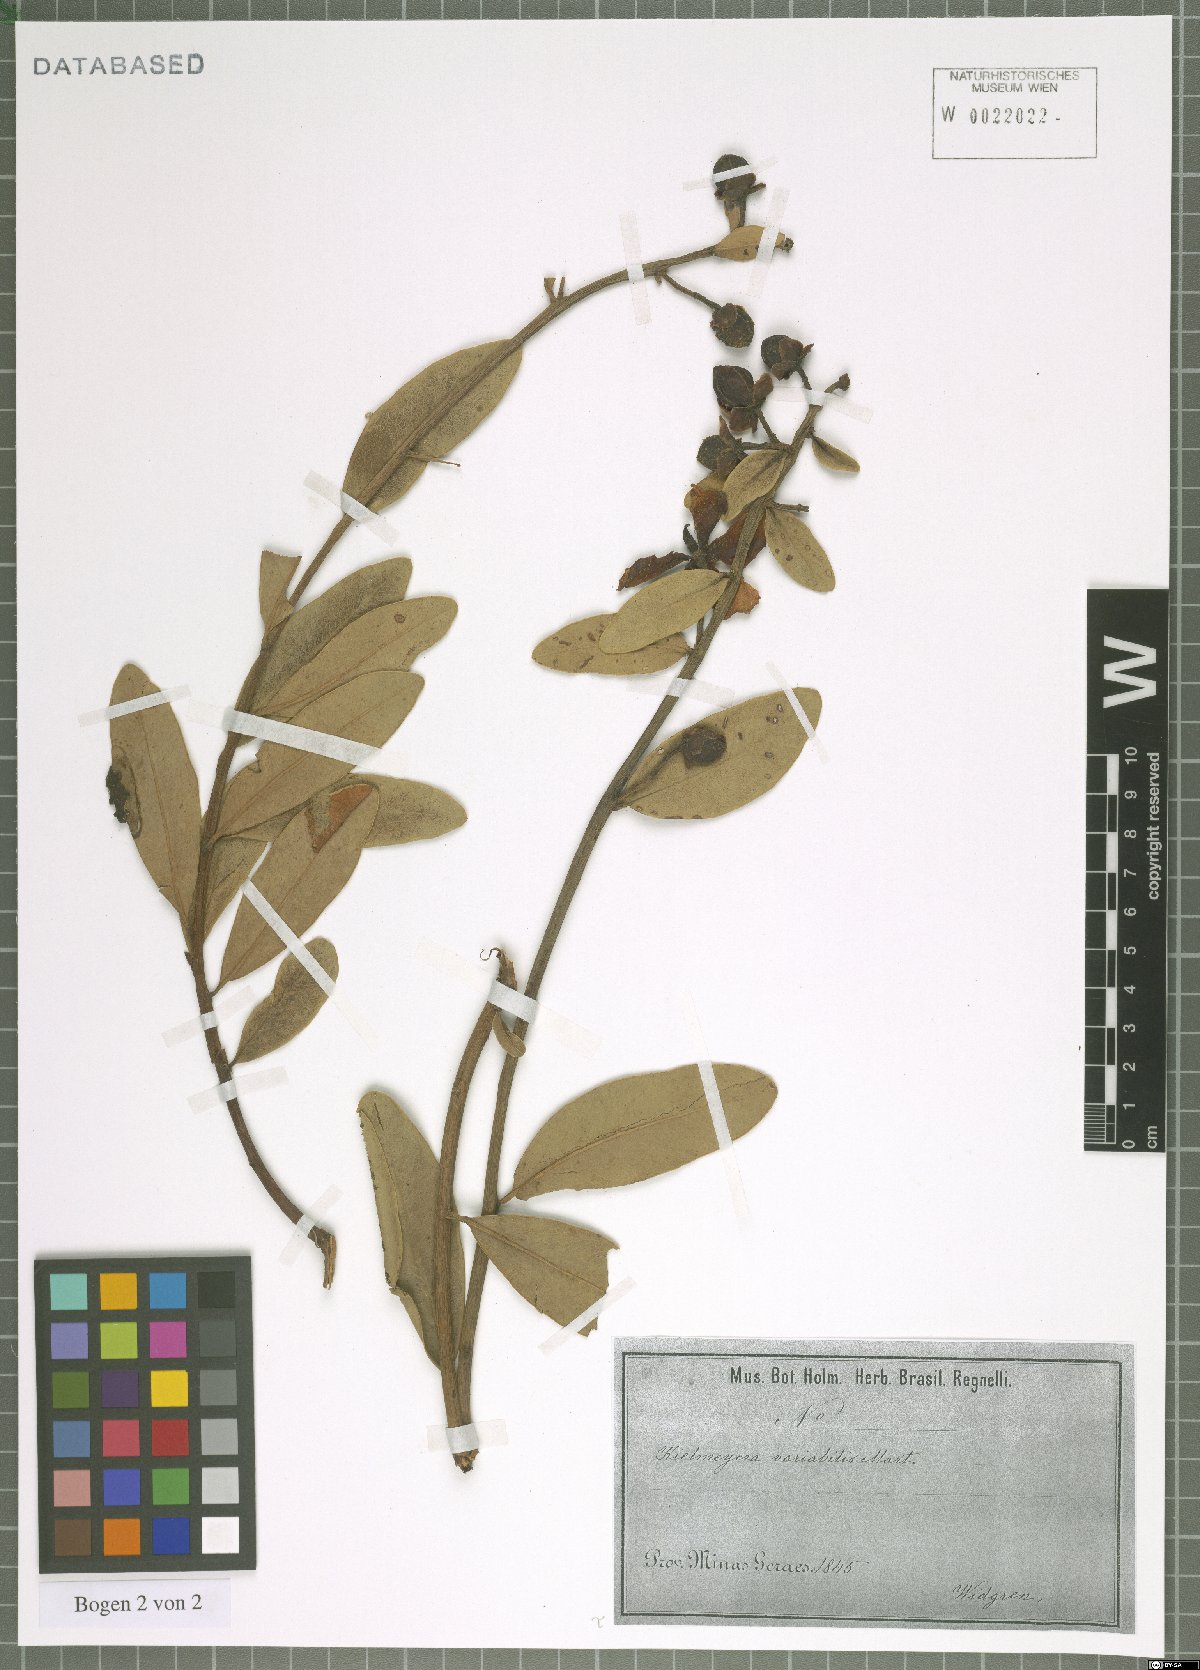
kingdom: Plantae
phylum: Tracheophyta
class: Magnoliopsida
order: Malpighiales
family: Calophyllaceae
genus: Kielmeyera
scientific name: Kielmeyera variabilis
